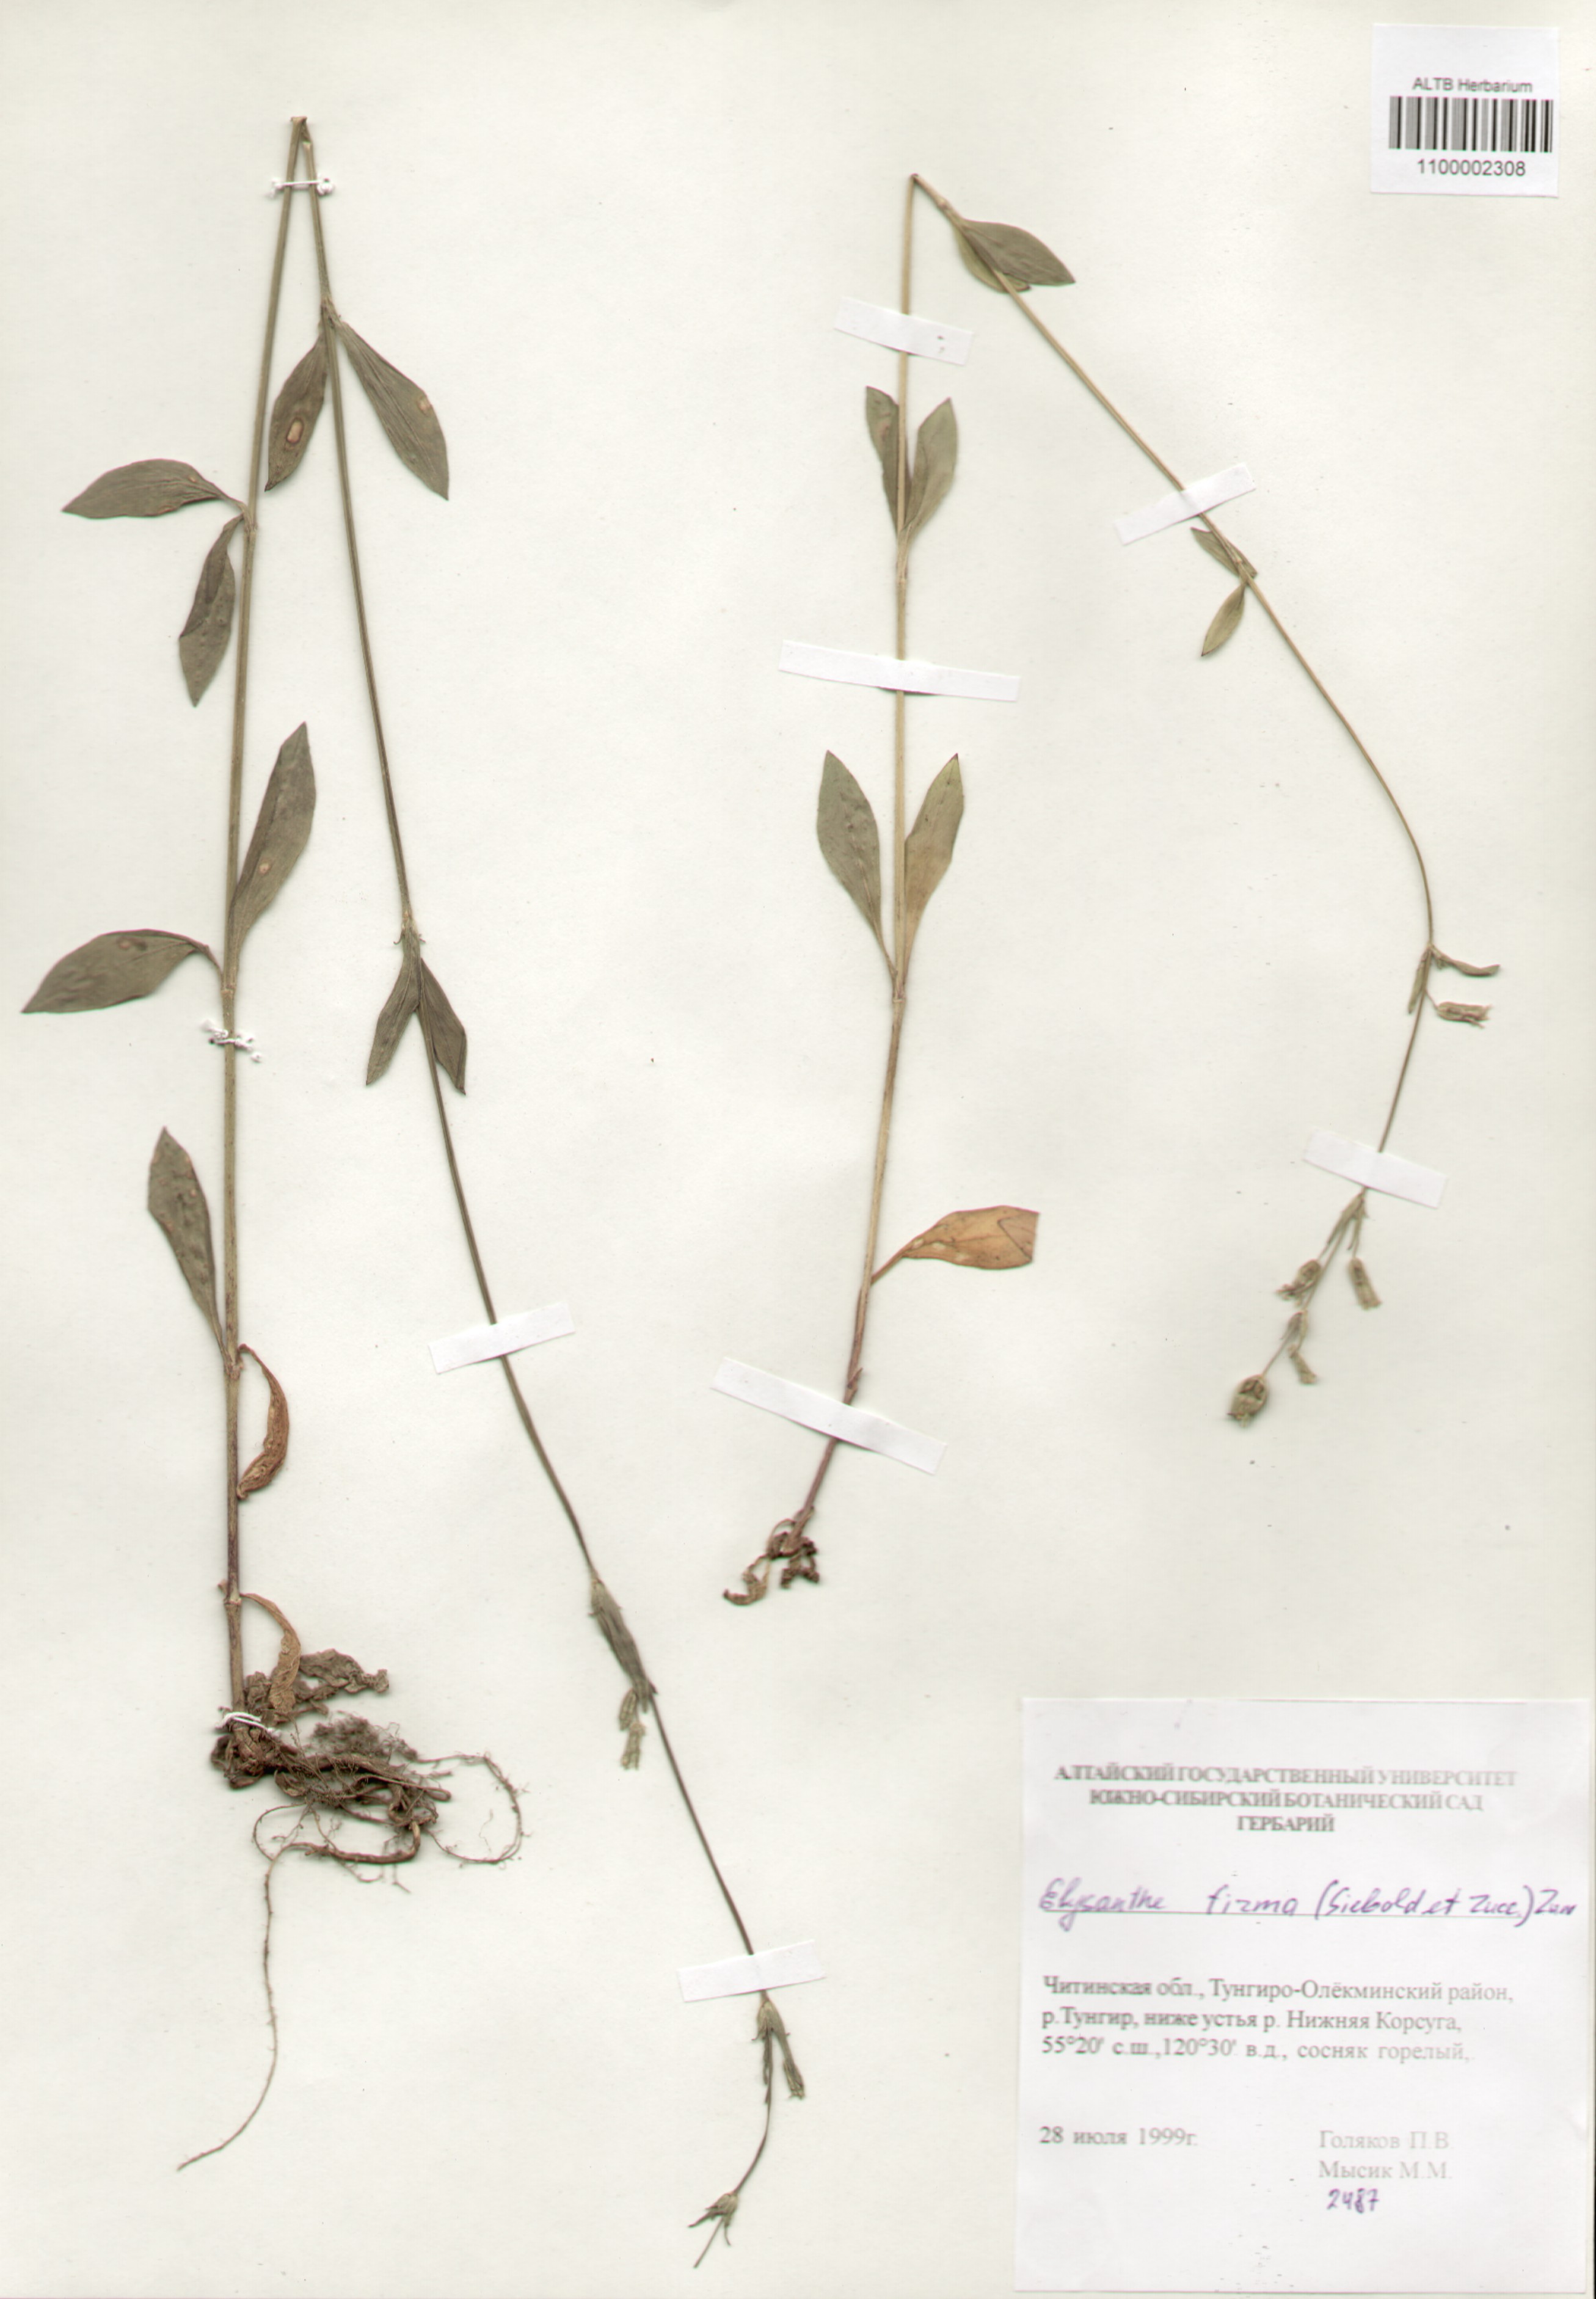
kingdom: Plantae
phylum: Tracheophyta
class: Magnoliopsida
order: Caryophyllales
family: Caryophyllaceae
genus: Silene
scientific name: Silene firma
